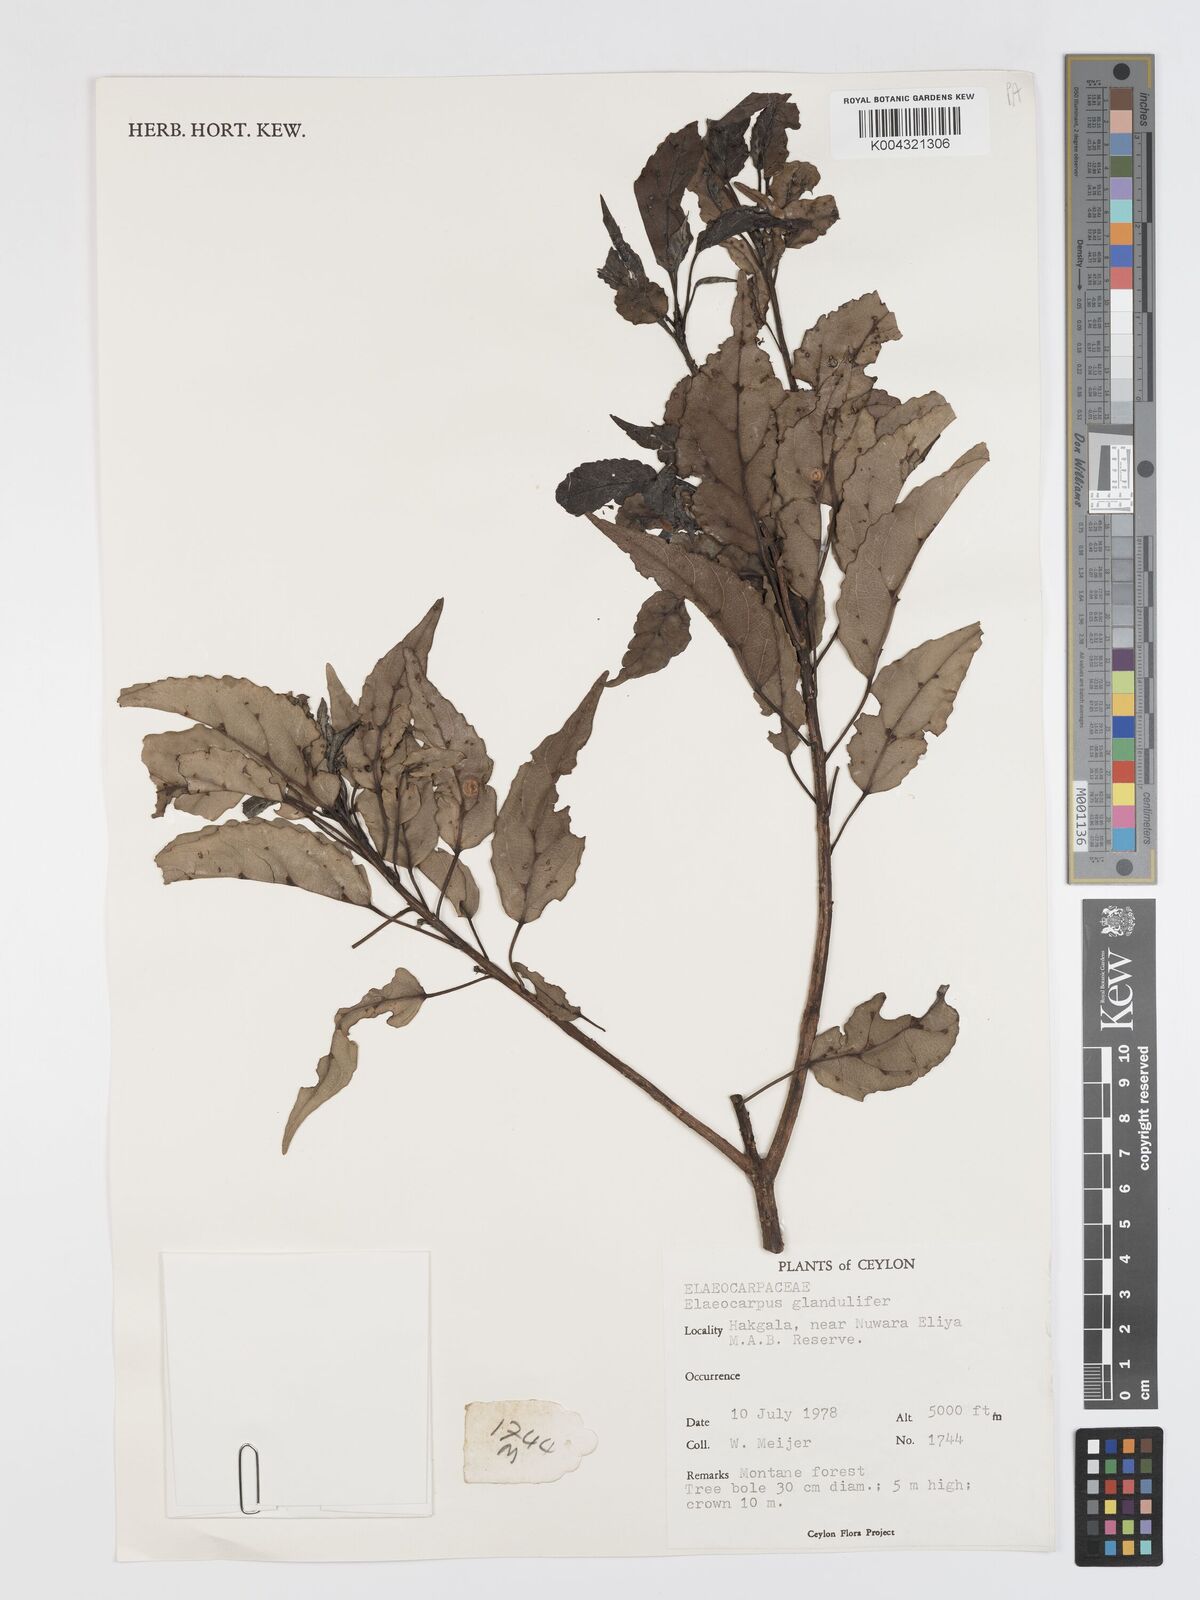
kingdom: Plantae
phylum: Tracheophyta
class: Magnoliopsida
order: Oxalidales
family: Elaeocarpaceae
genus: Elaeocarpus
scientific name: Elaeocarpus glandulifer
